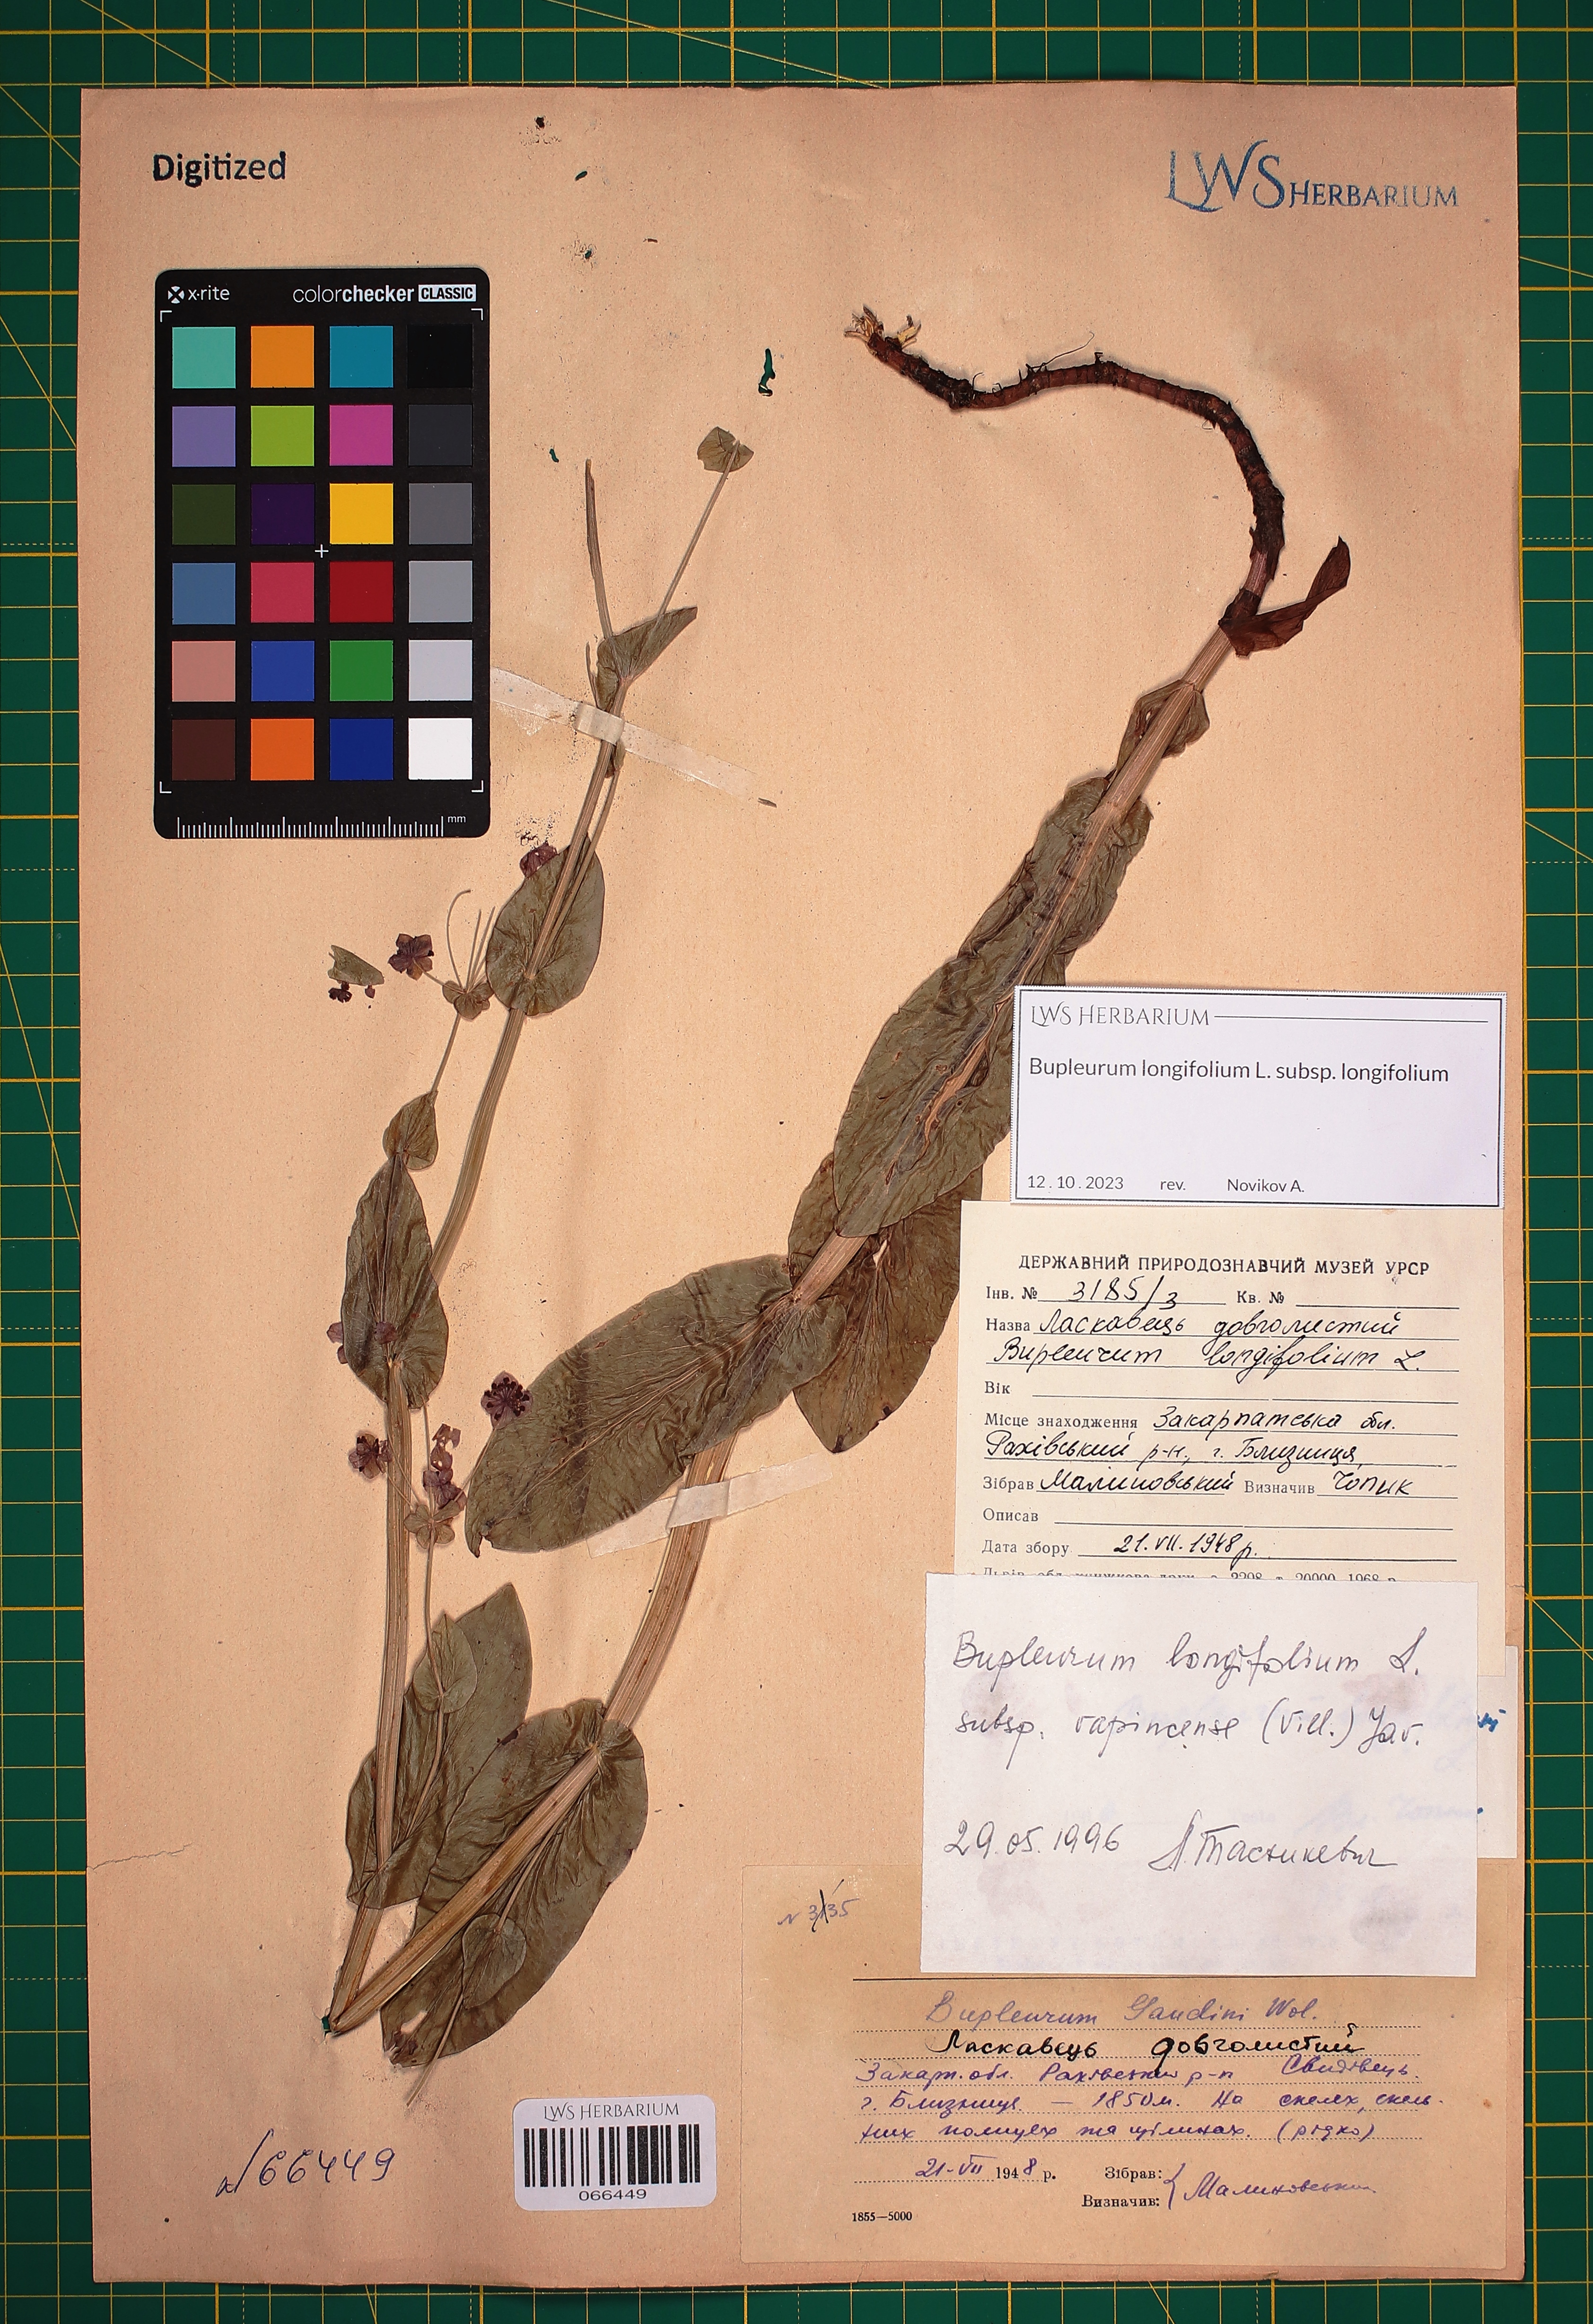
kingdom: Plantae
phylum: Tracheophyta
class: Magnoliopsida
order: Apiales
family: Apiaceae
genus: Bupleurum
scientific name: Bupleurum longifolium
